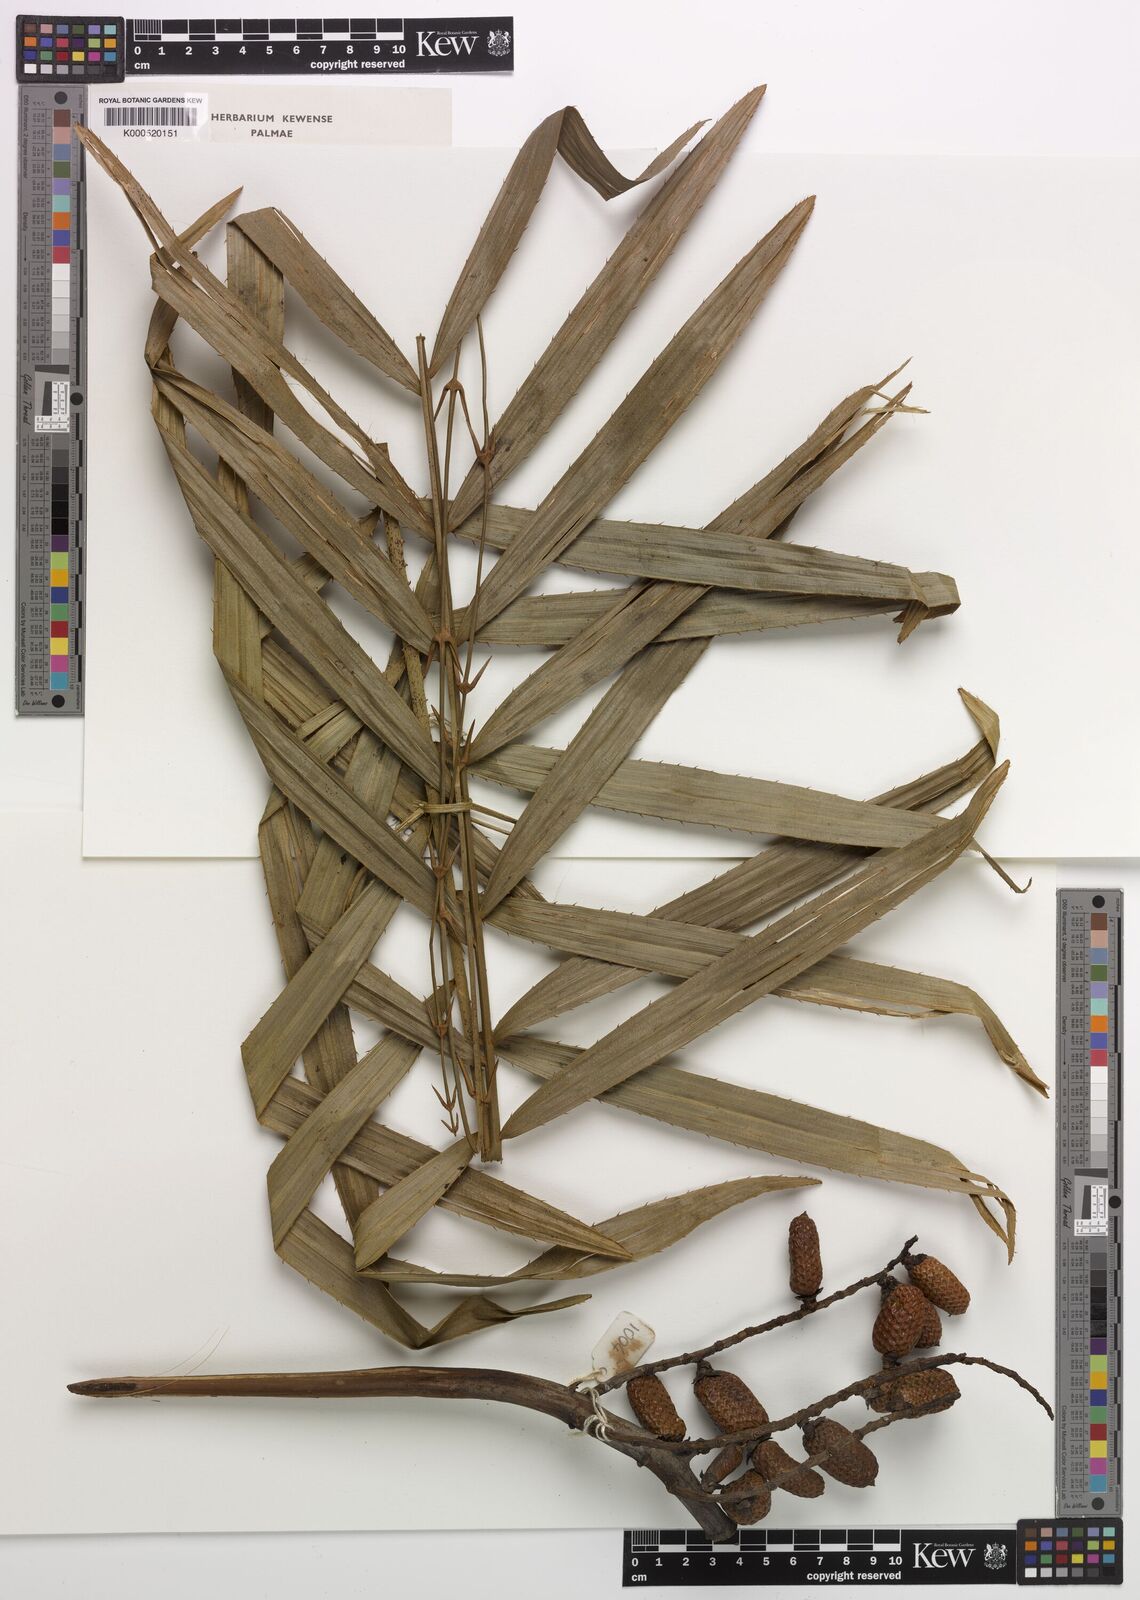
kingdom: Plantae
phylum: Tracheophyta
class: Liliopsida
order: Arecales
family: Arecaceae
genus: Eremospatha
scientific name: Eremospatha
